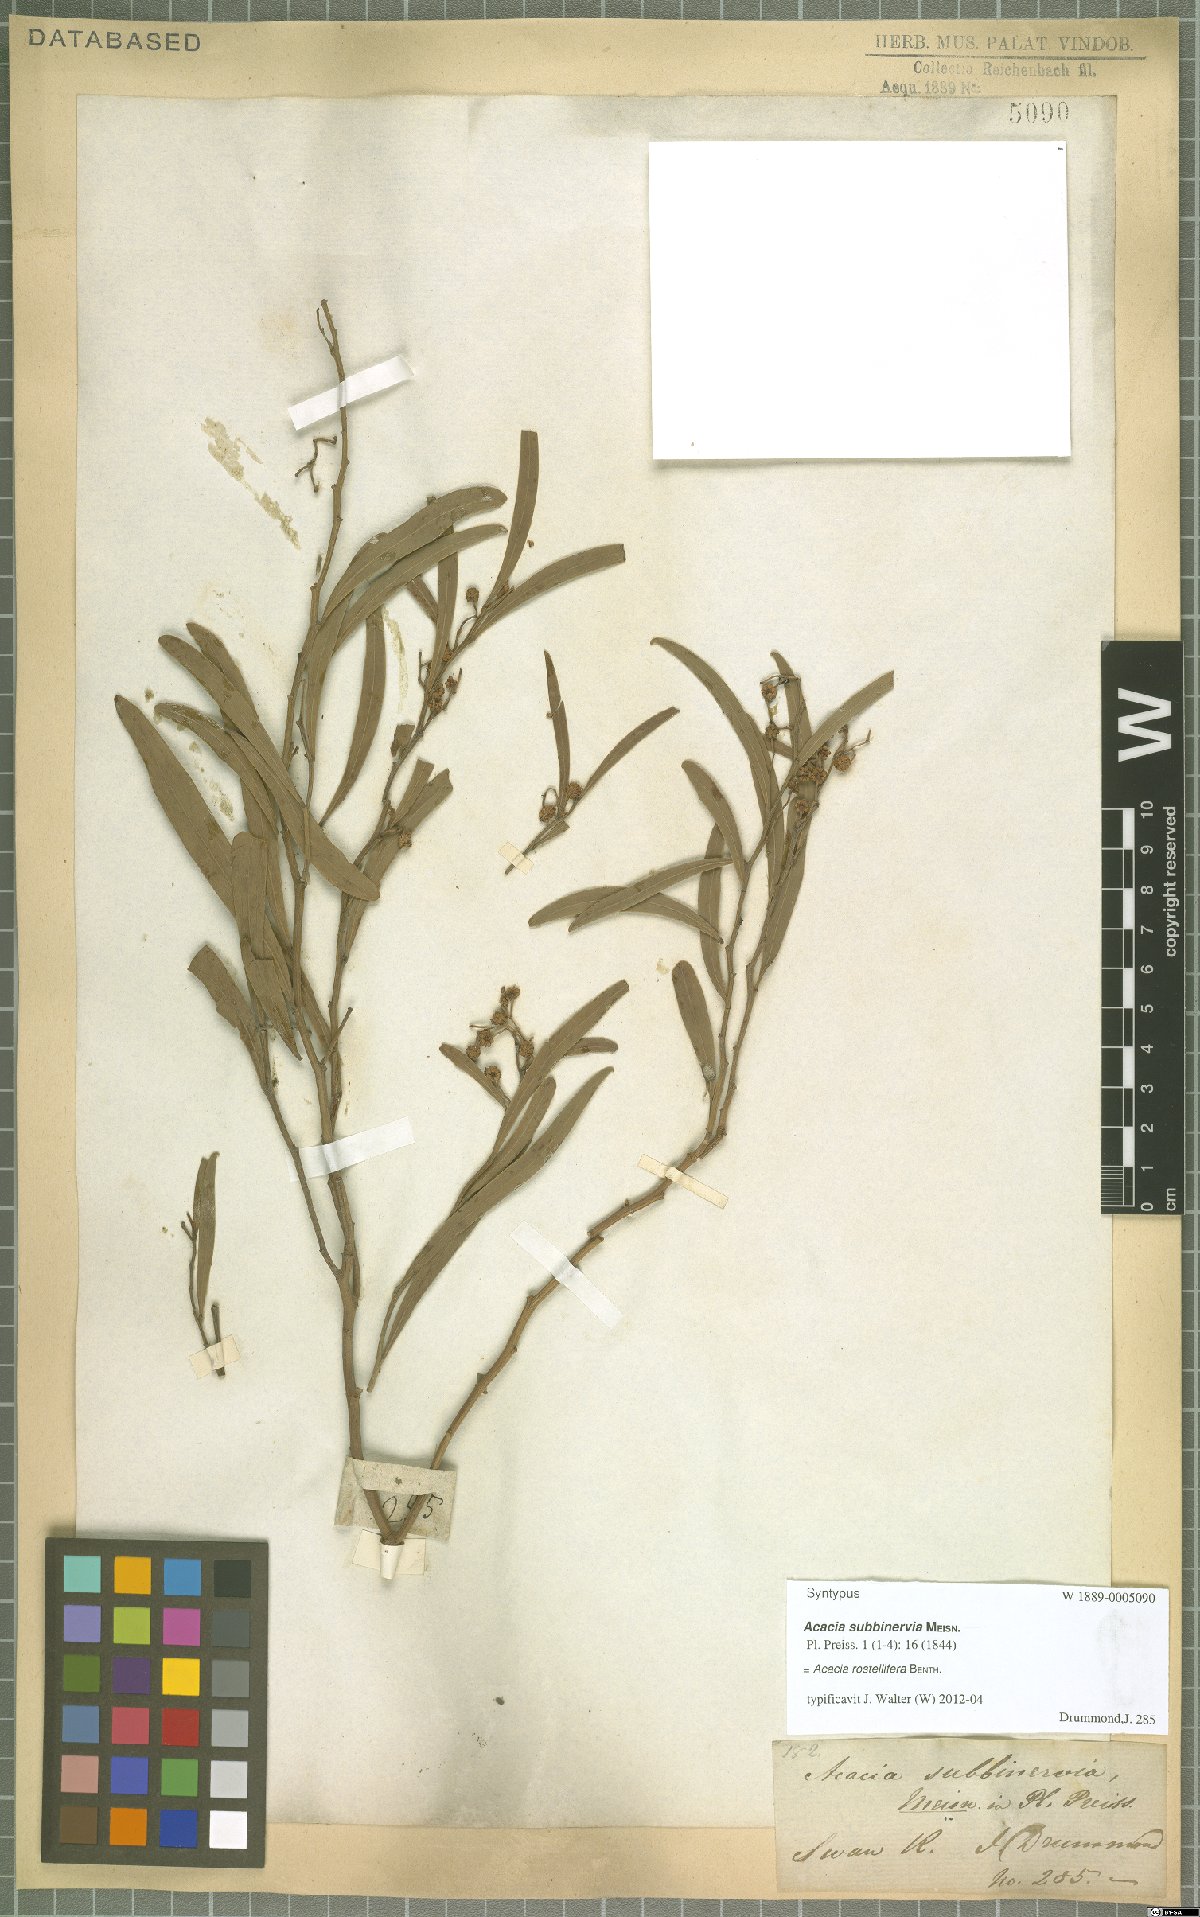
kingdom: Plantae
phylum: Tracheophyta
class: Magnoliopsida
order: Fabales
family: Fabaceae
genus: Acacia
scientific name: Acacia rostellifera
